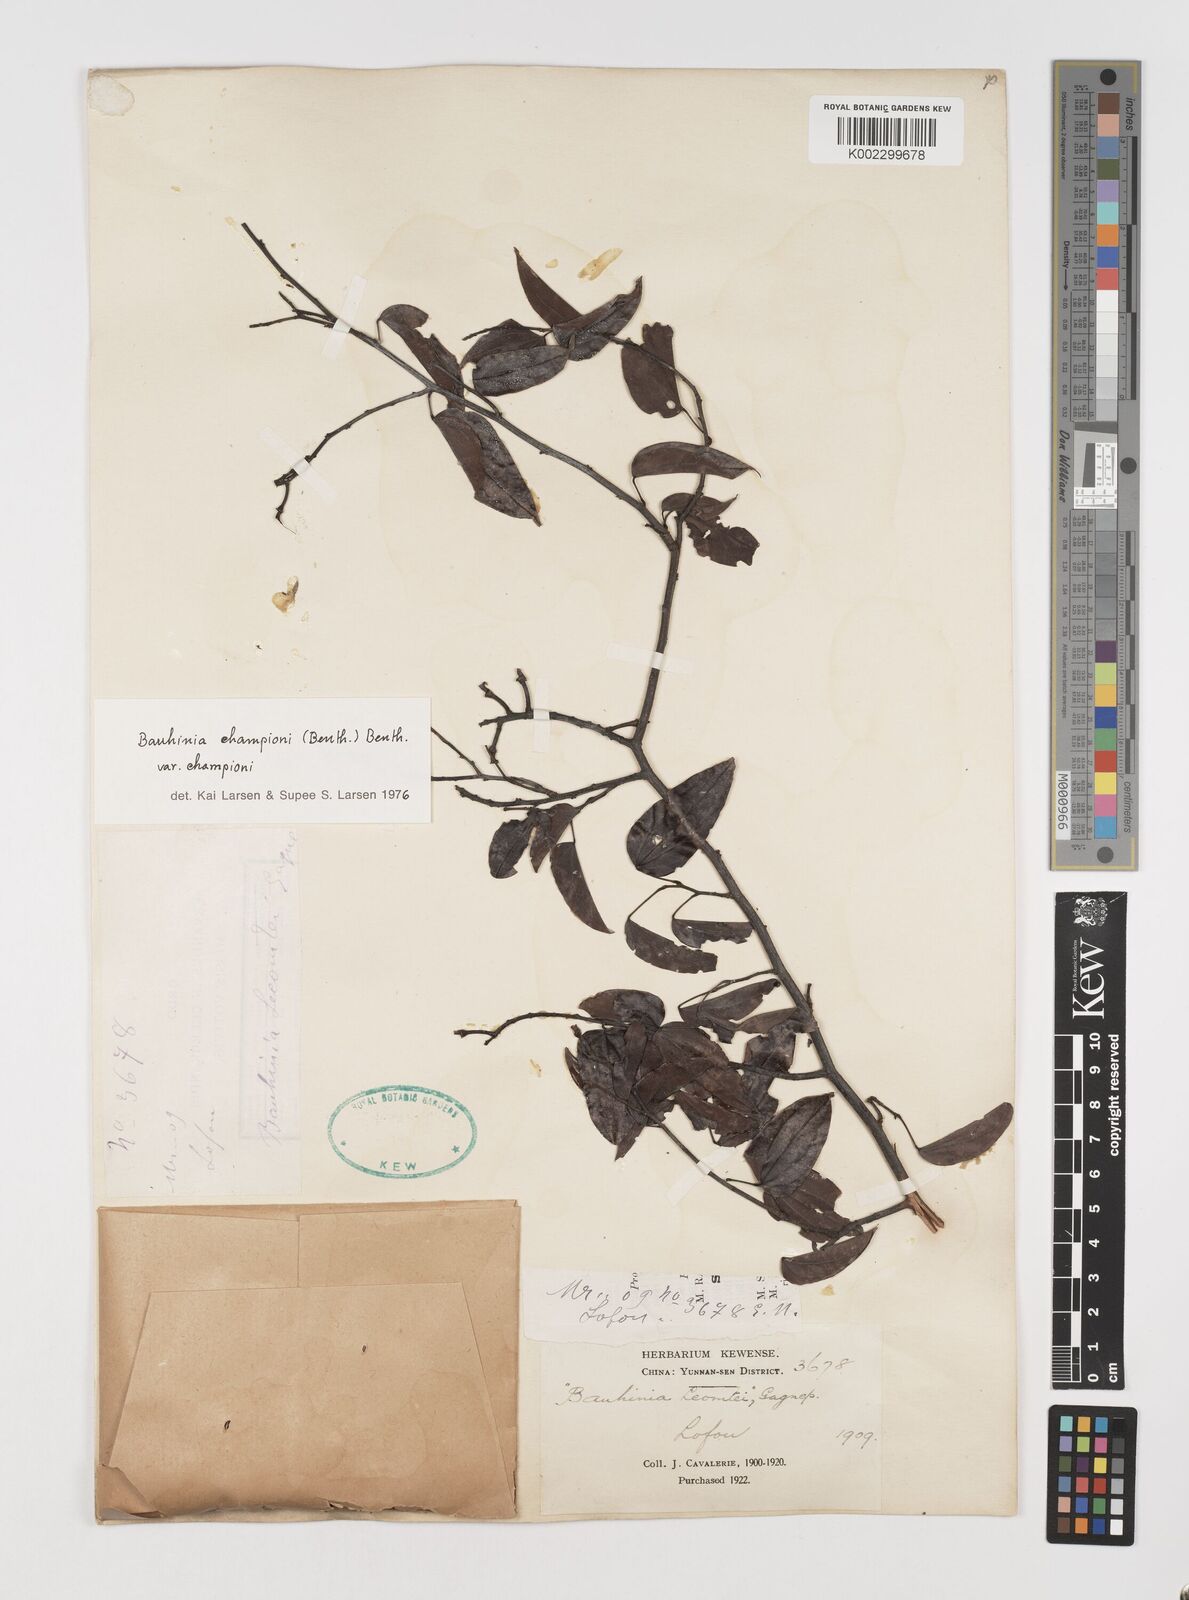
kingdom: Plantae
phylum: Tracheophyta
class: Magnoliopsida
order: Fabales
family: Fabaceae
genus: Phanera
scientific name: Phanera championii
